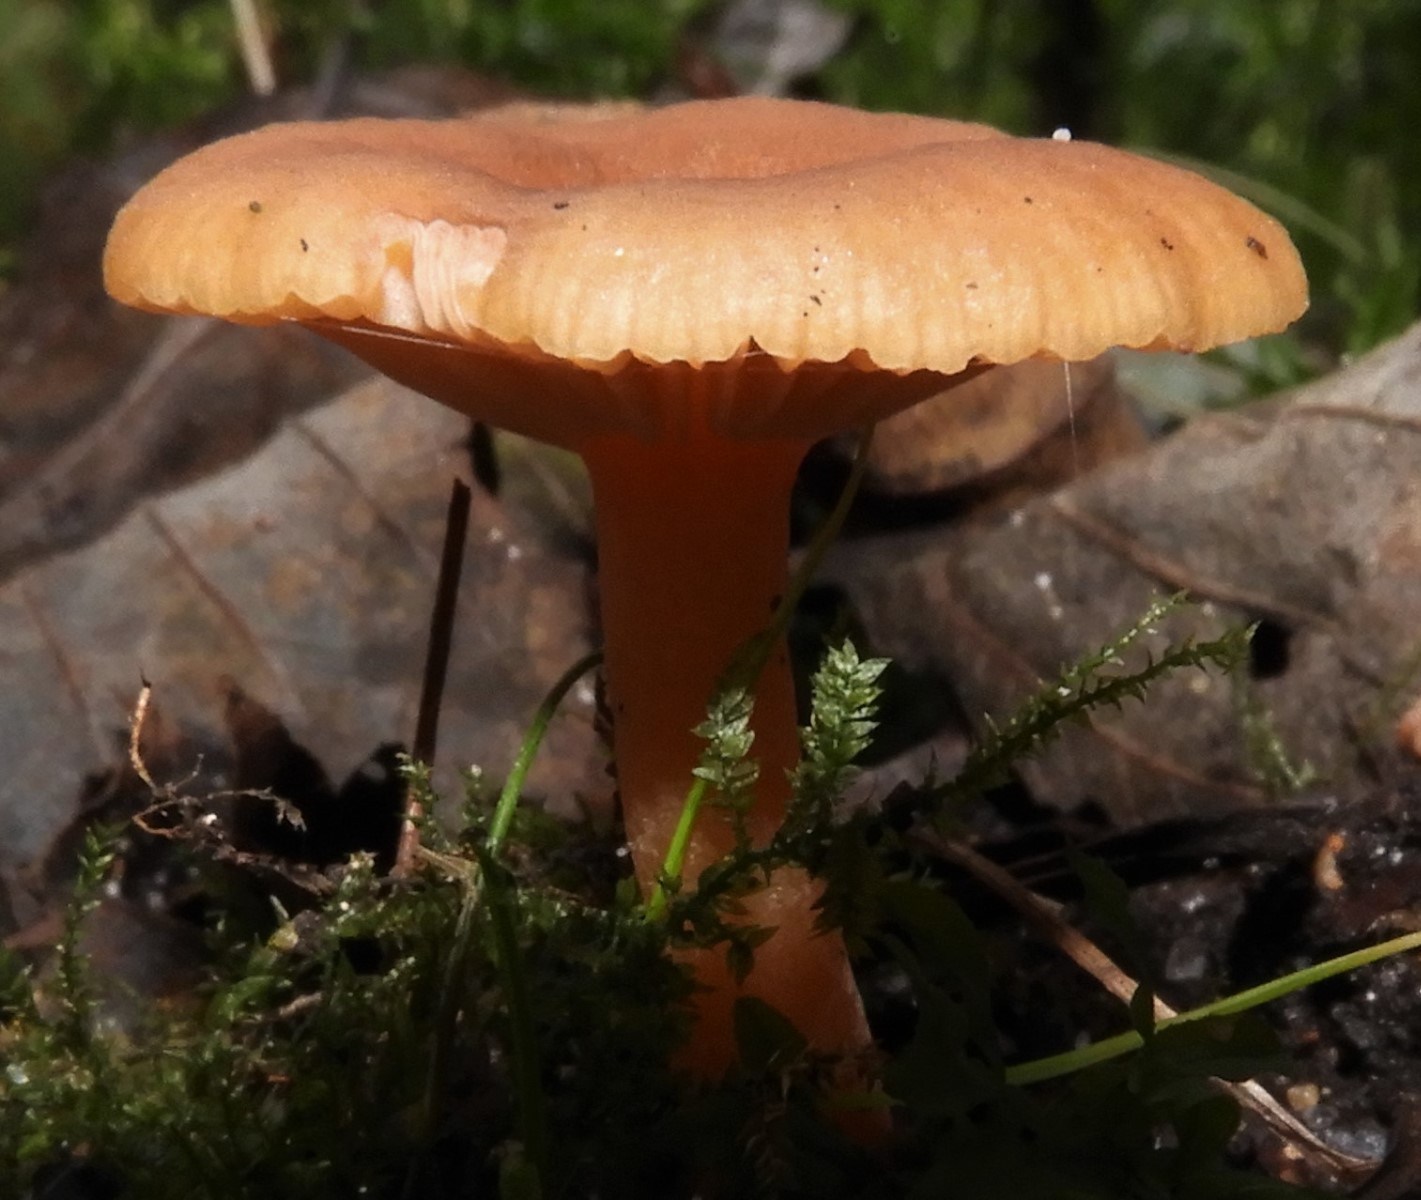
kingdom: Fungi
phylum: Basidiomycota
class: Agaricomycetes
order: Russulales
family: Russulaceae
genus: Lactarius
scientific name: Lactarius cyathuliformis
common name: mørkøjet mælkehat
